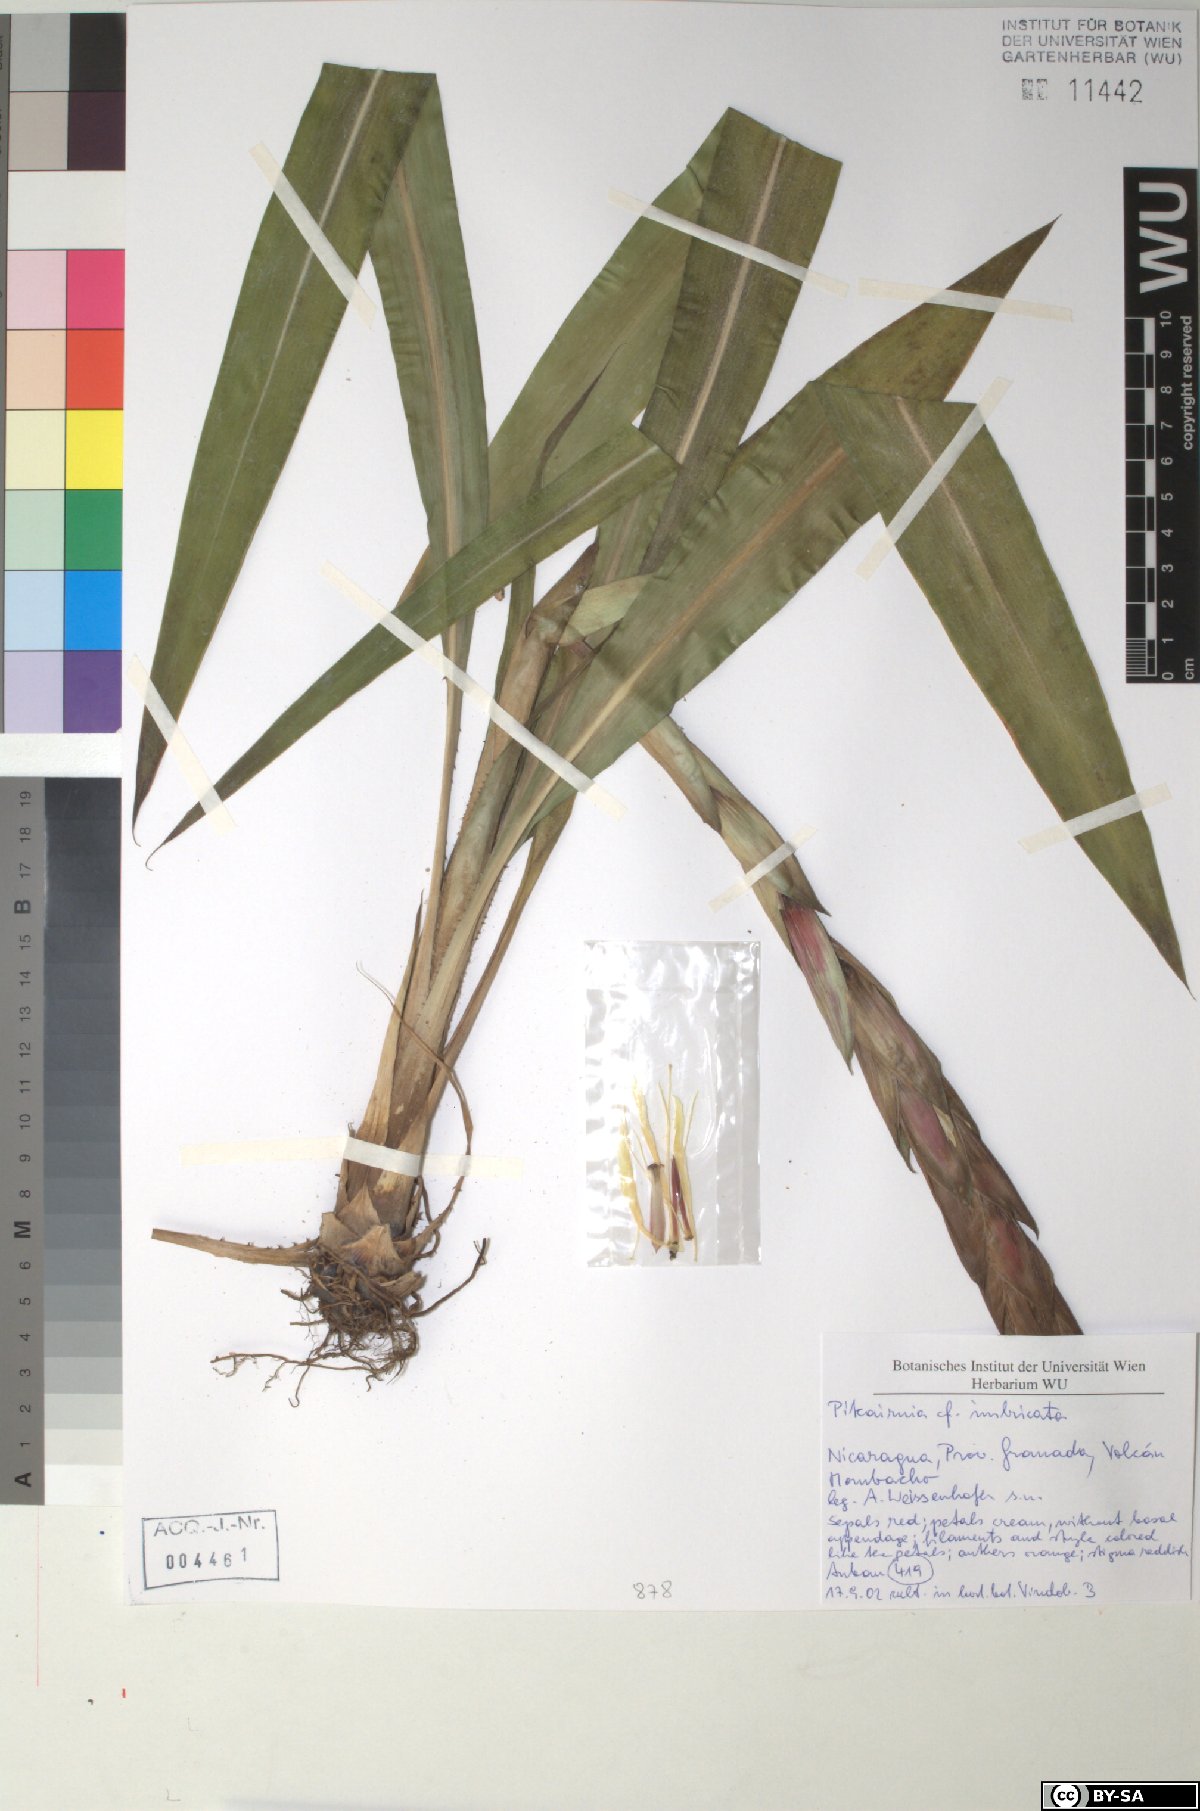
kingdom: Plantae
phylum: Tracheophyta
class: Liliopsida
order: Poales
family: Bromeliaceae
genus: Pitcairnia
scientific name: Pitcairnia imbricata
